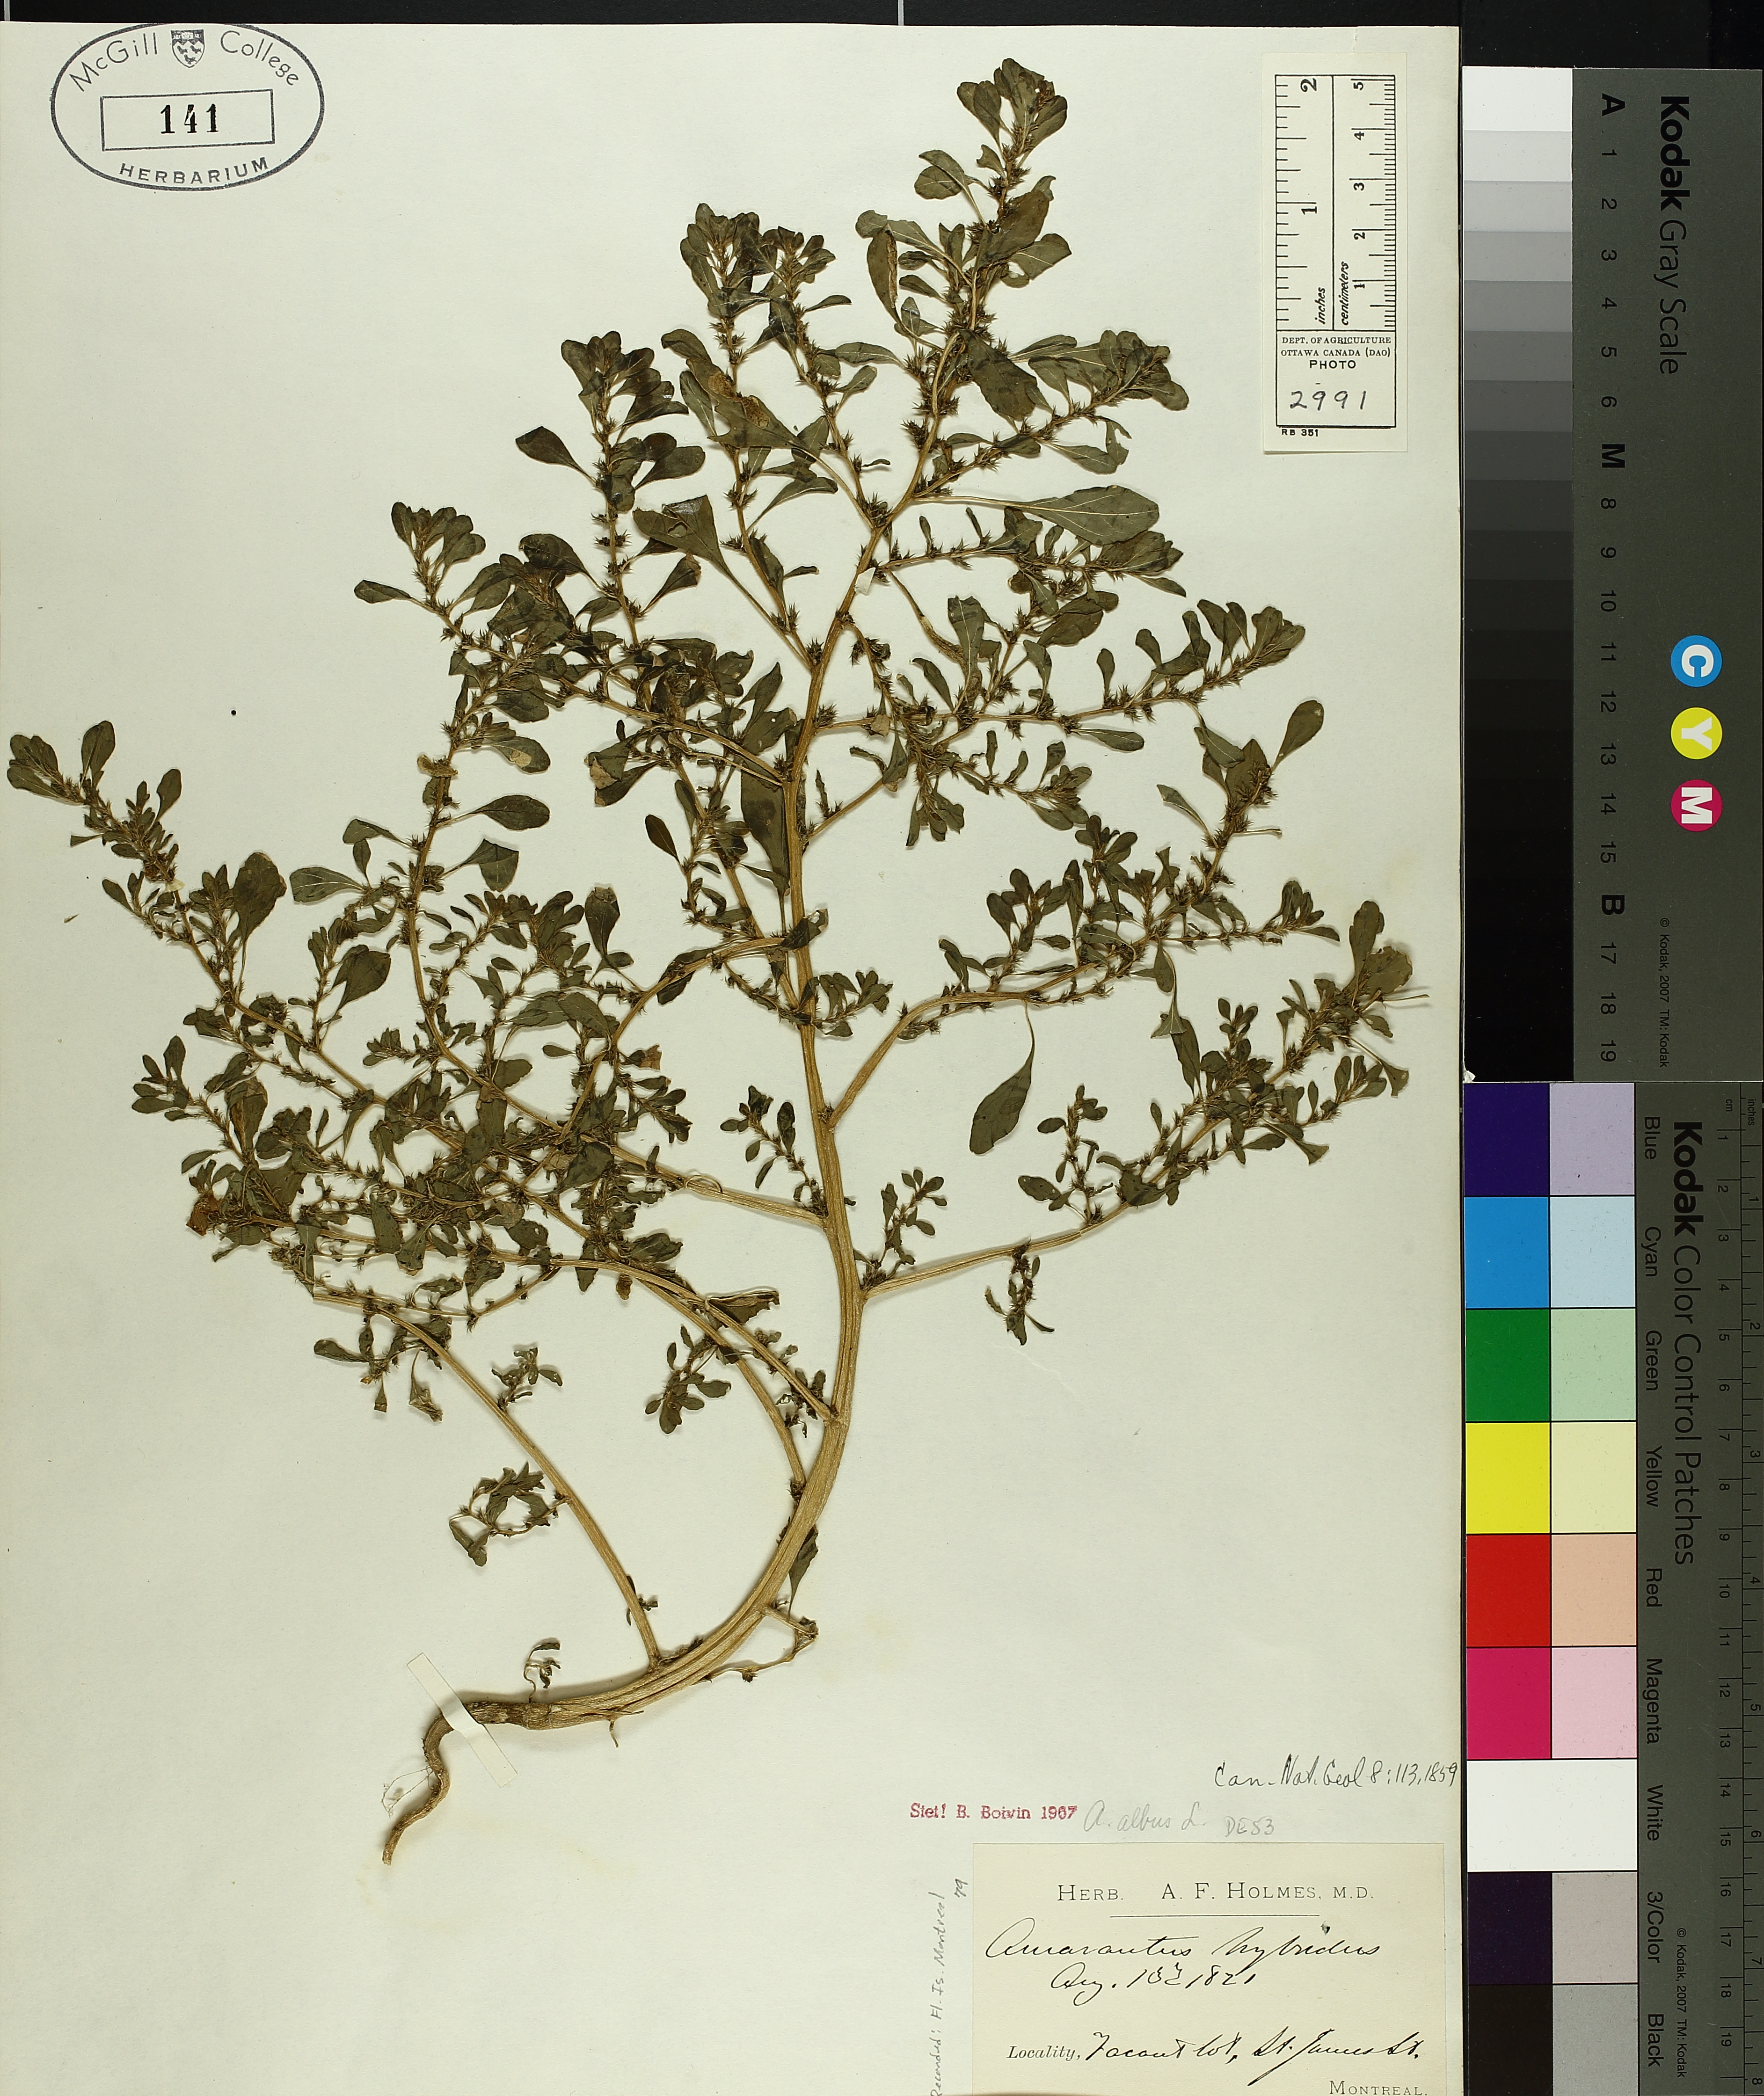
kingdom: Plantae
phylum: Tracheophyta
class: Magnoliopsida
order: Caryophyllales
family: Amaranthaceae
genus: Amaranthus
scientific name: Amaranthus albus
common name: White pigweed
